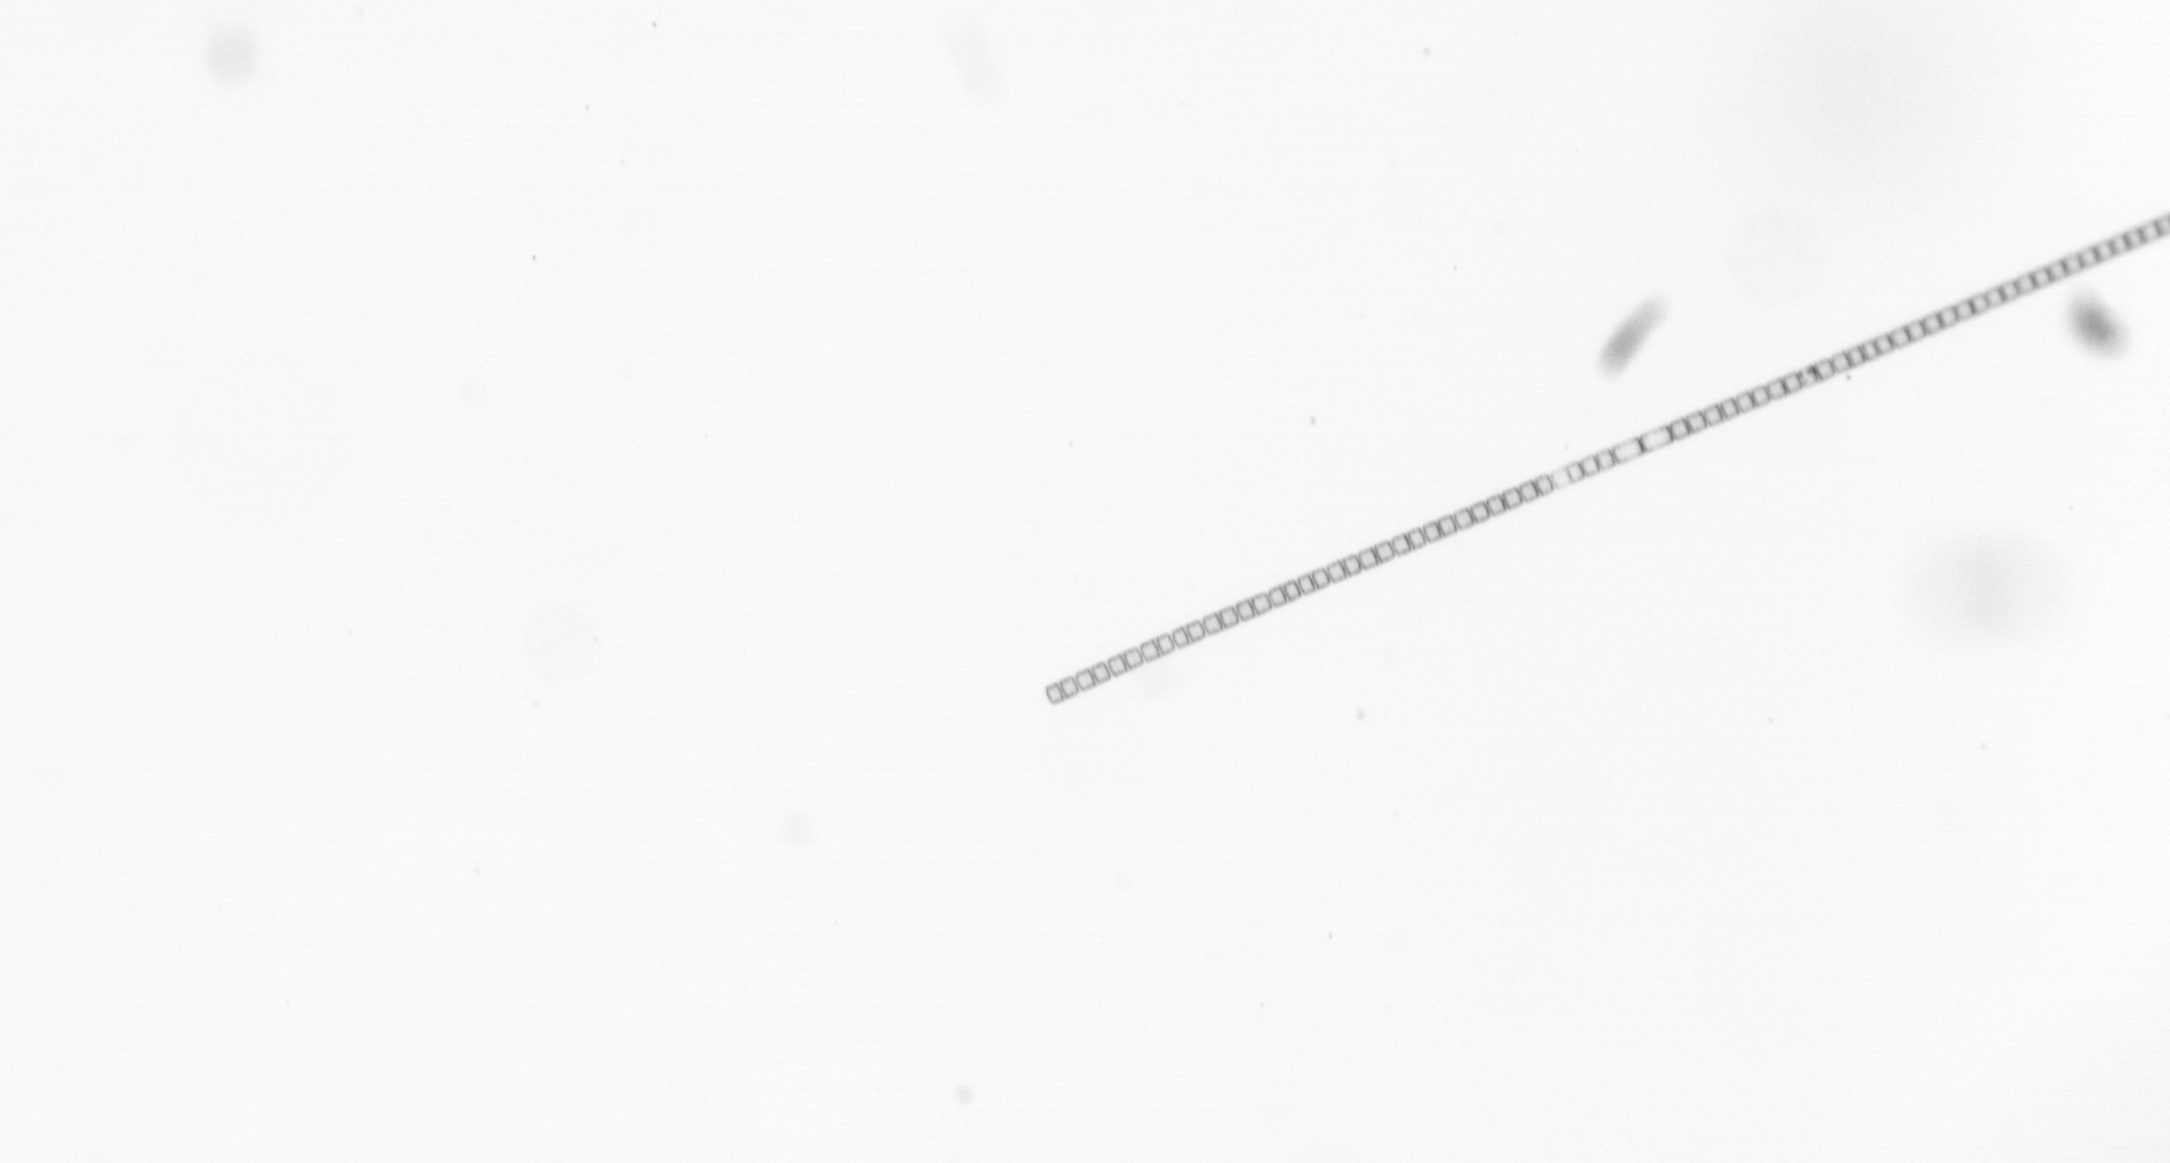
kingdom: Chromista
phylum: Ochrophyta
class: Bacillariophyceae
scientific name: Bacillariophyceae
